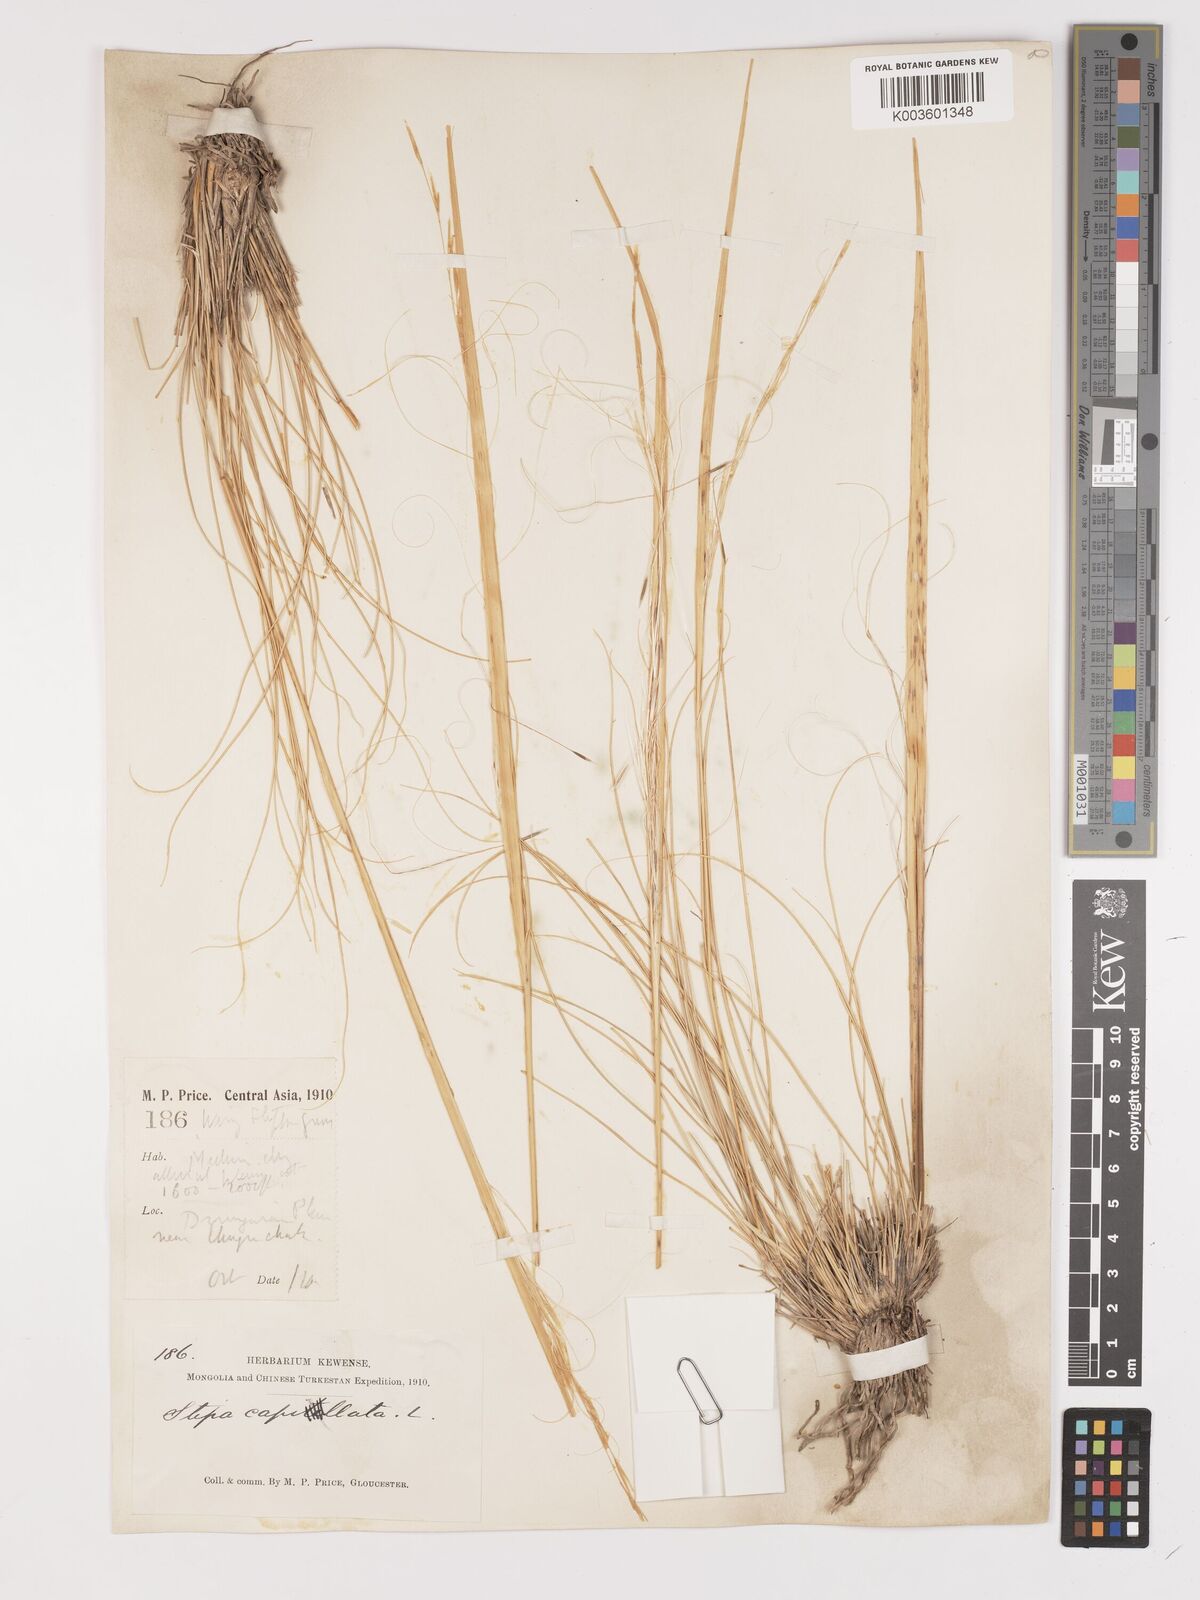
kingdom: Plantae
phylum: Tracheophyta
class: Liliopsida
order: Poales
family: Poaceae
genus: Stipa
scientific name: Stipa capillata
